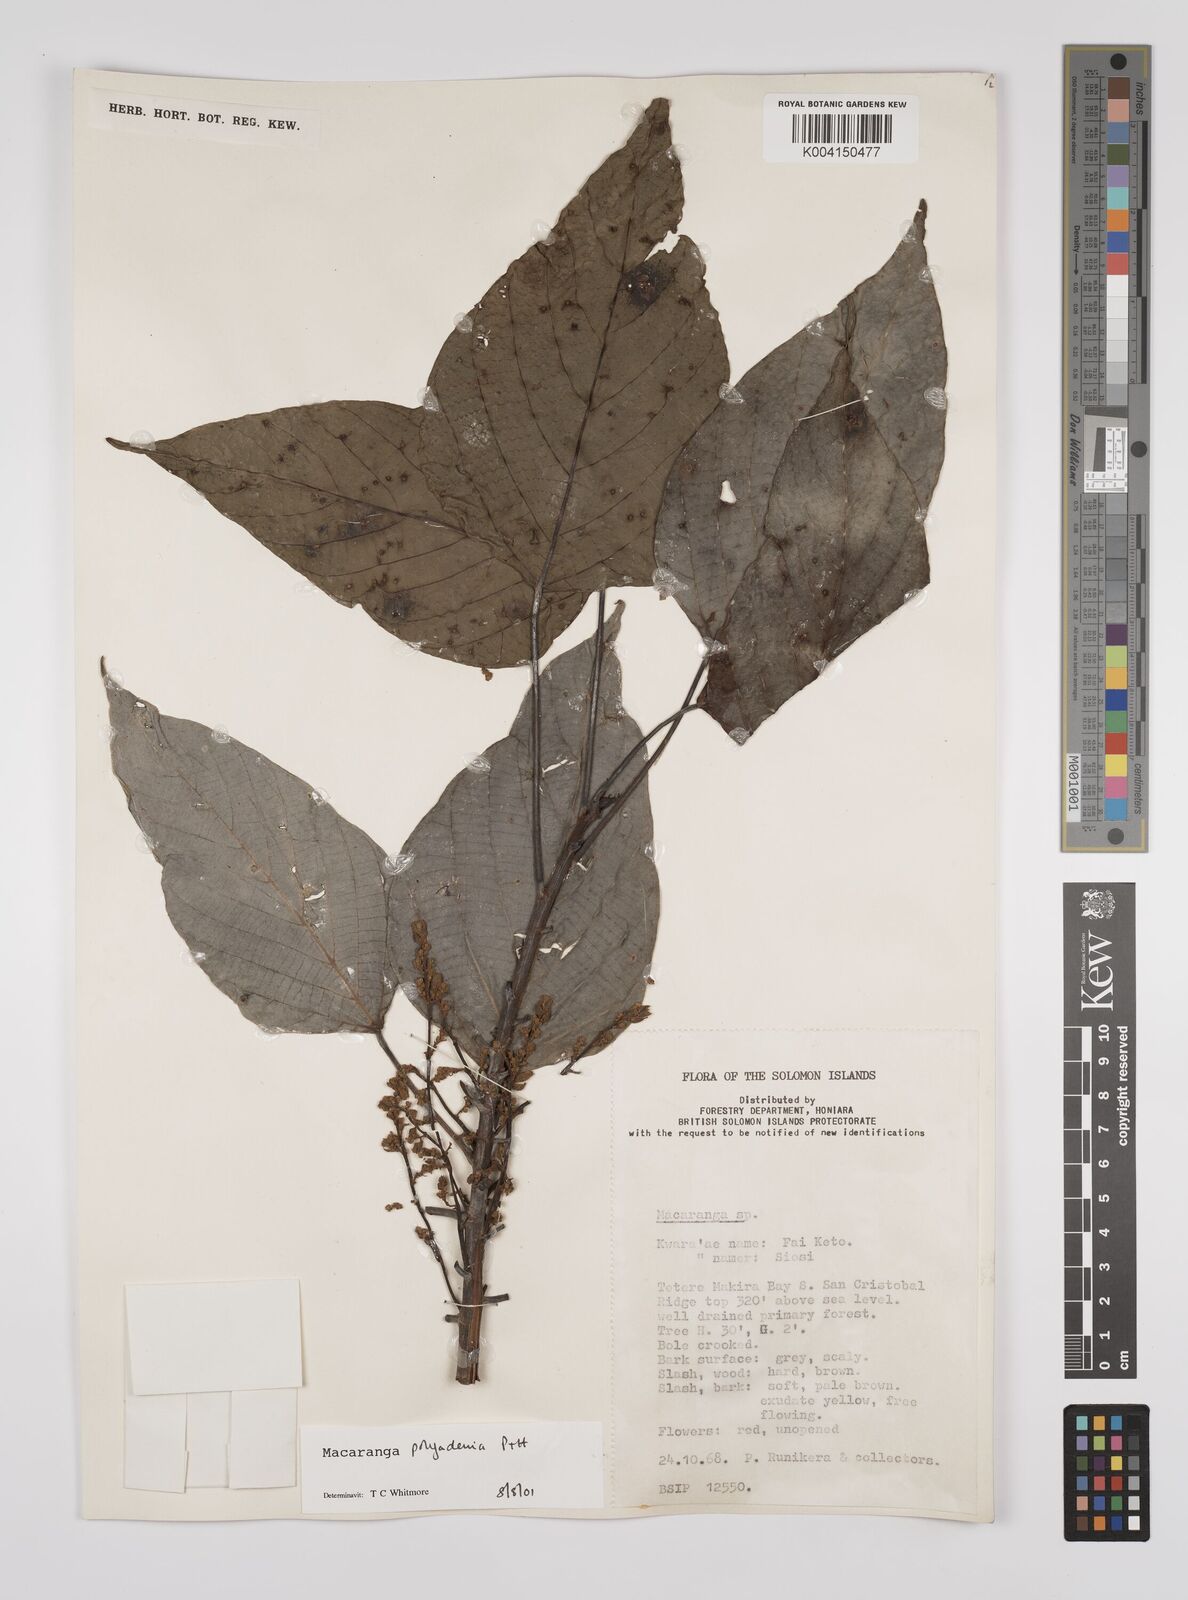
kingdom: Plantae
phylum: Tracheophyta
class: Magnoliopsida
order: Malpighiales
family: Euphorbiaceae
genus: Macaranga
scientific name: Macaranga polyadenia
